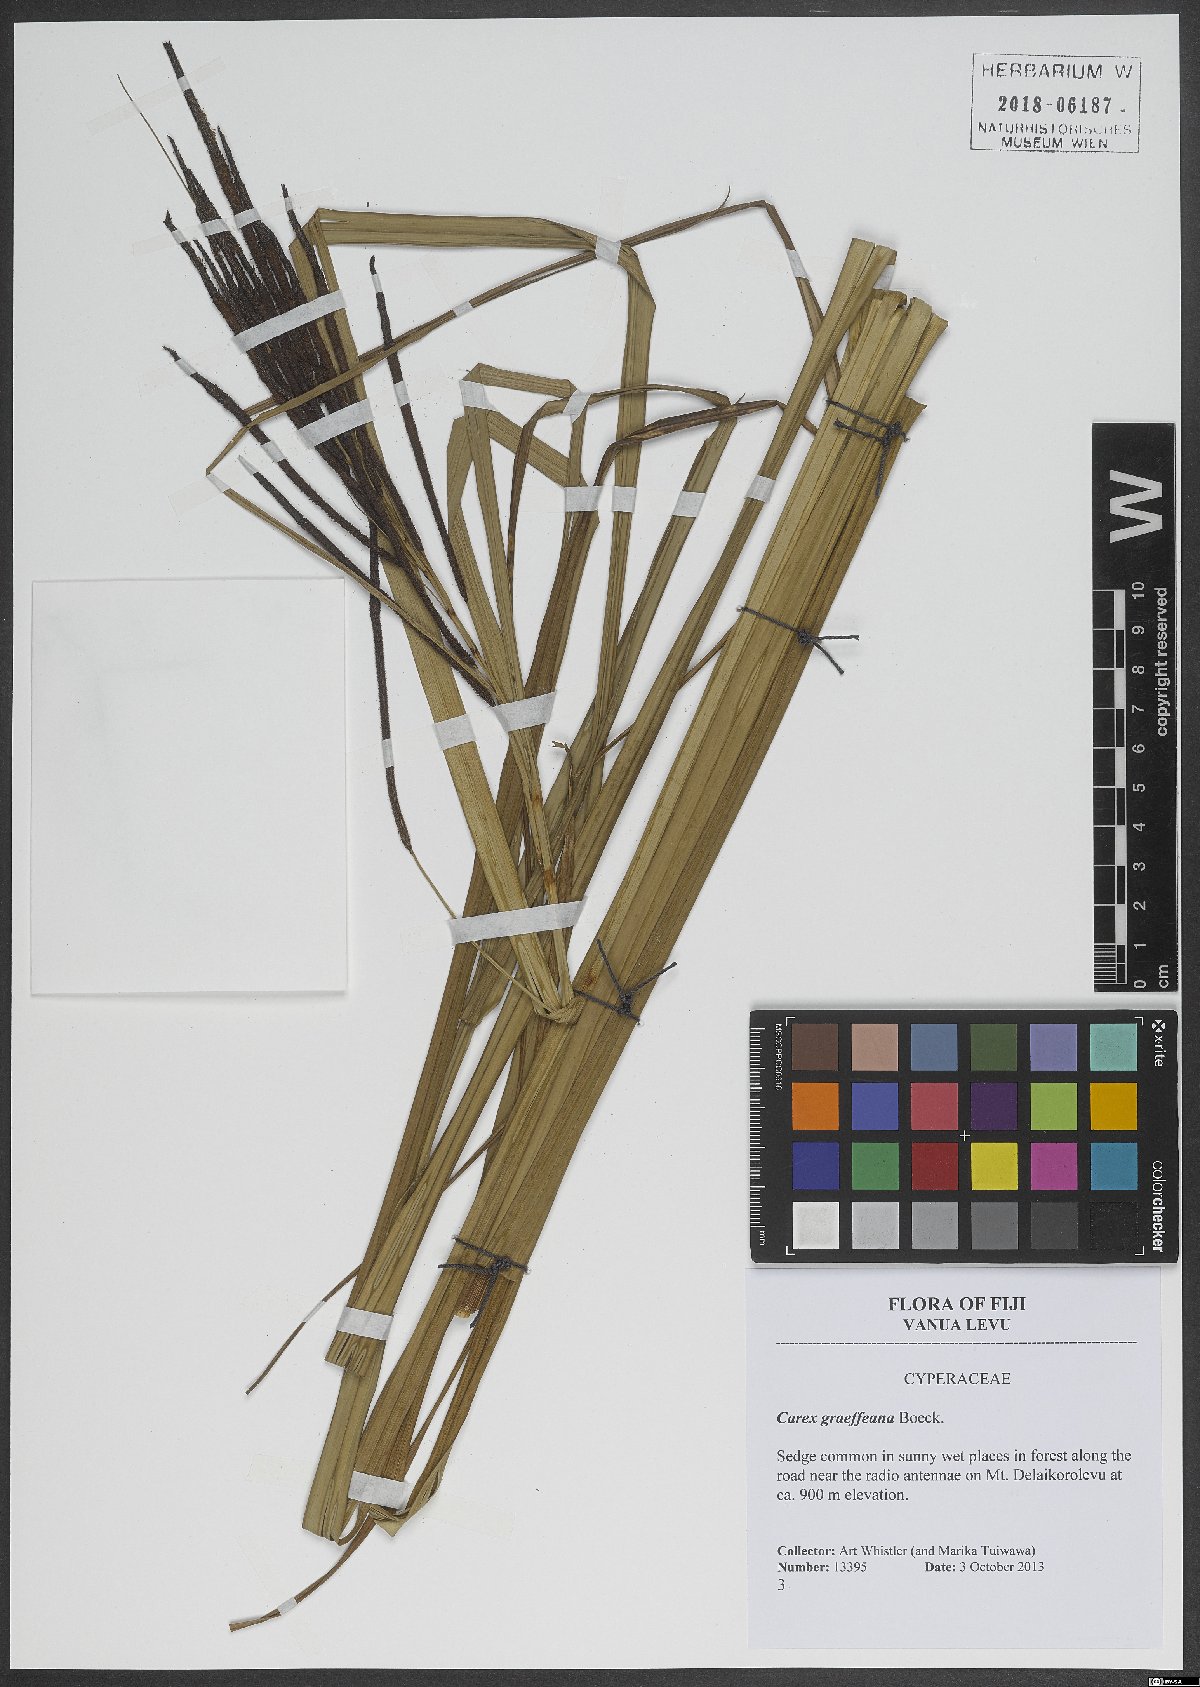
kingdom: Plantae
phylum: Tracheophyta
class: Liliopsida
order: Poales
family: Cyperaceae
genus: Carex
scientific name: Carex graeffeana
